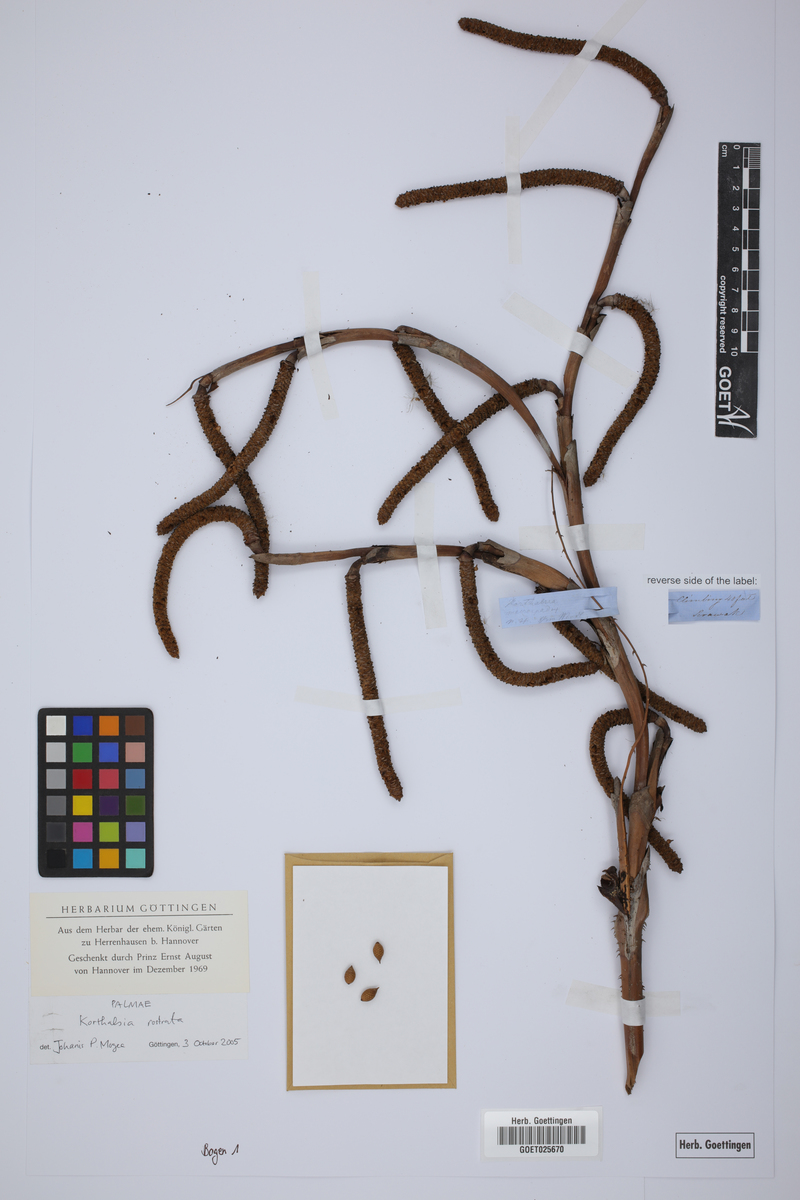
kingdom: Plantae
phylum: Tracheophyta
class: Liliopsida
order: Arecales
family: Arecaceae
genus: Korthalsia
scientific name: Korthalsia rostrata
